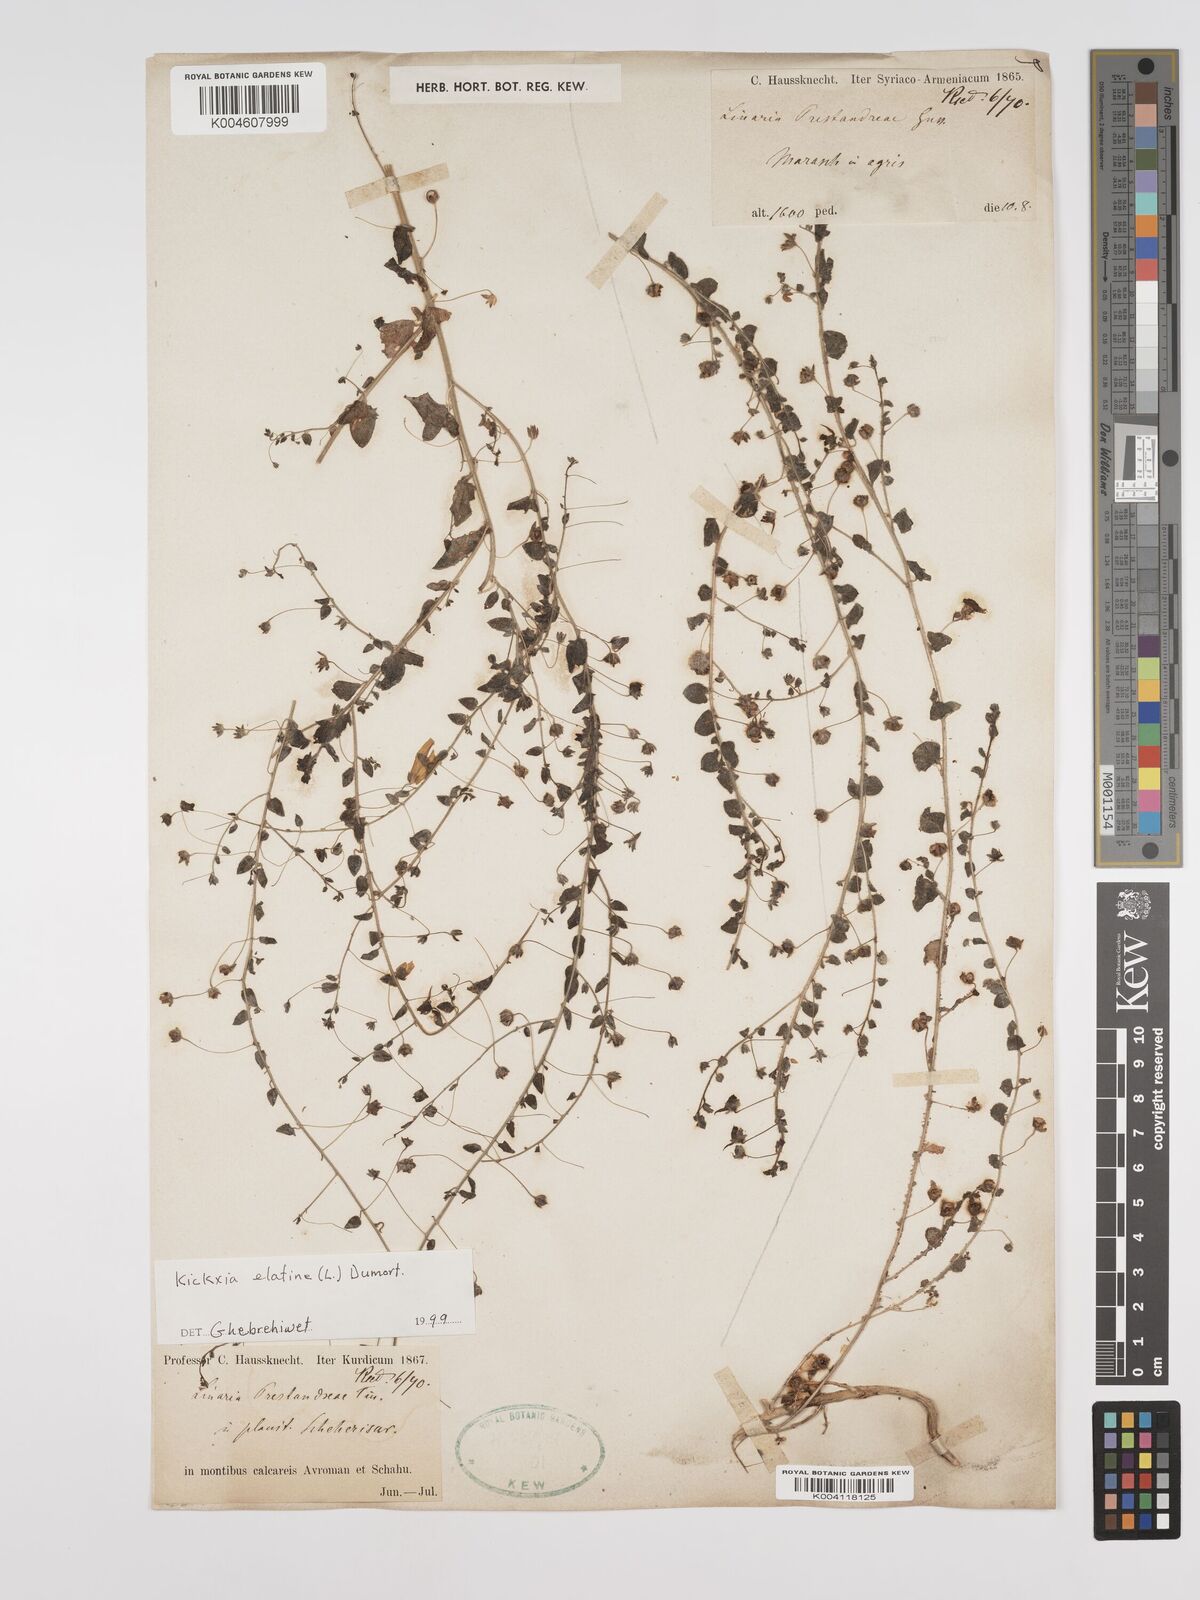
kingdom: Plantae
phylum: Tracheophyta
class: Magnoliopsida
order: Lamiales
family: Plantaginaceae
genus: Kickxia
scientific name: Kickxia elatine
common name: Sharp-leaved fluellen
